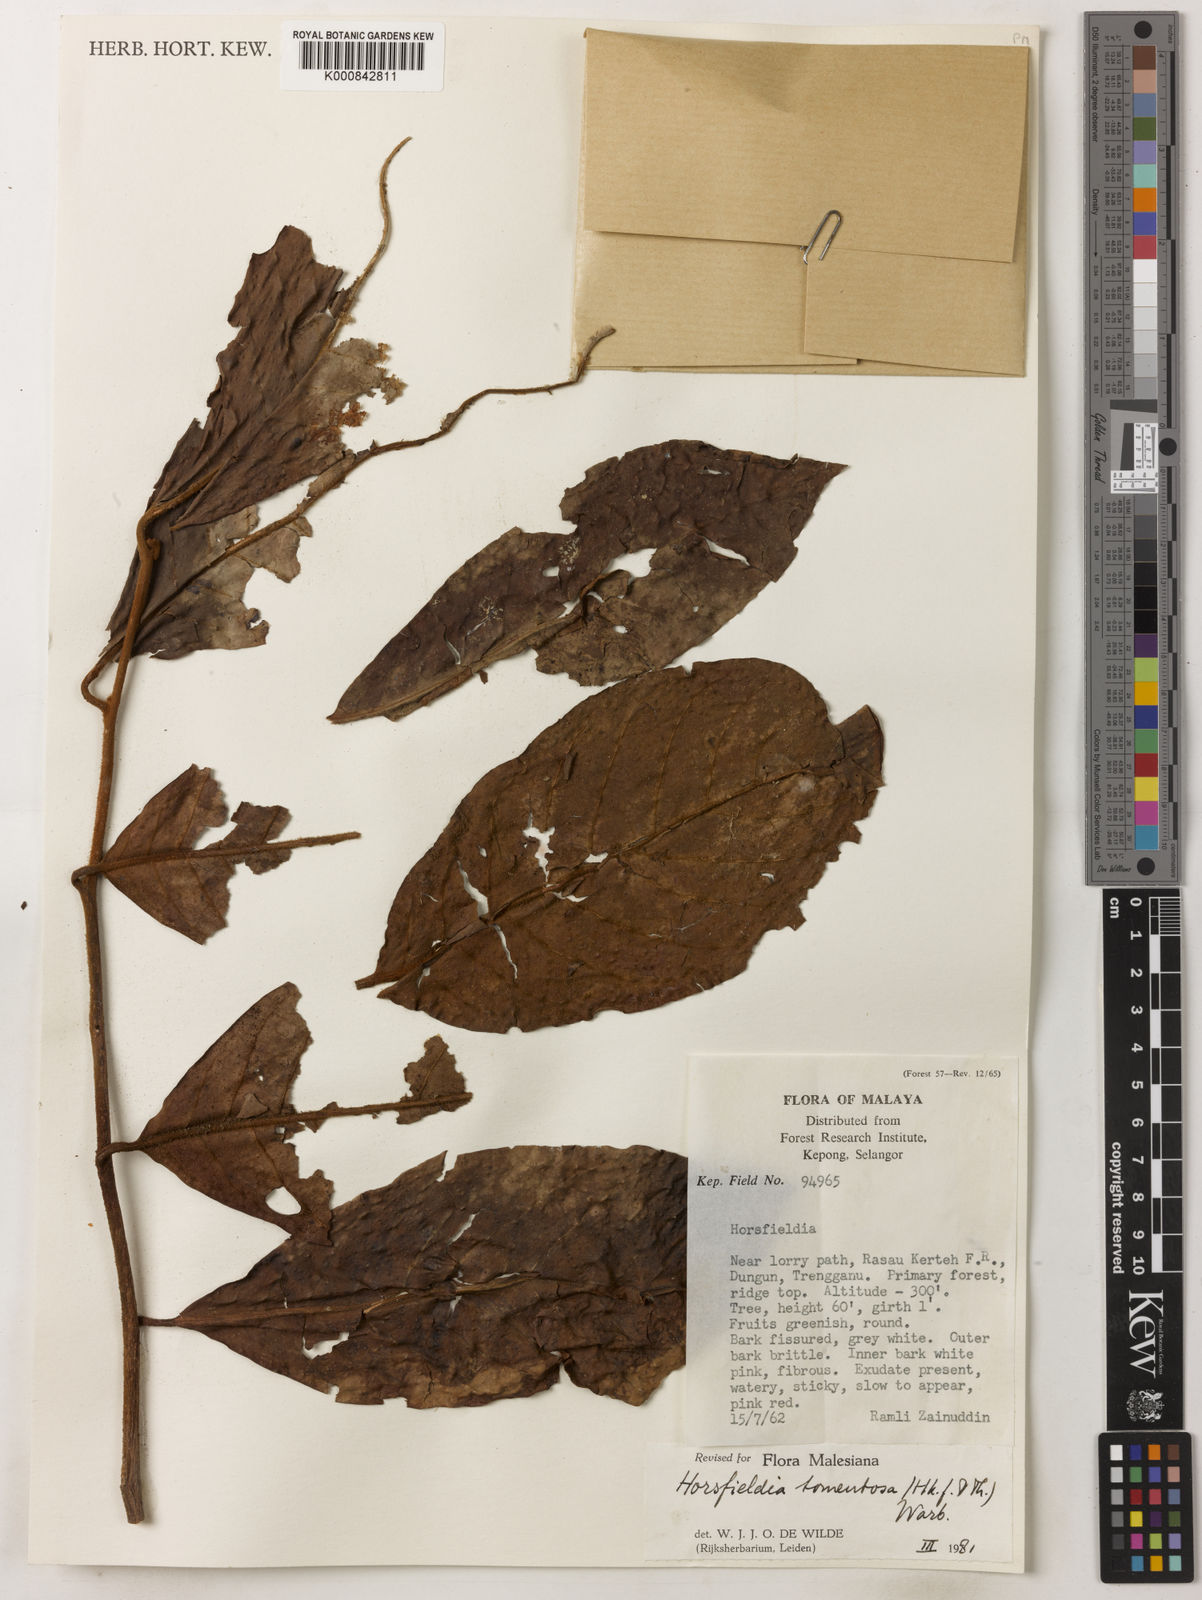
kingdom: Plantae
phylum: Tracheophyta
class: Magnoliopsida
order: Magnoliales
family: Myristicaceae
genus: Horsfieldia
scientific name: Horsfieldia tomentosa
